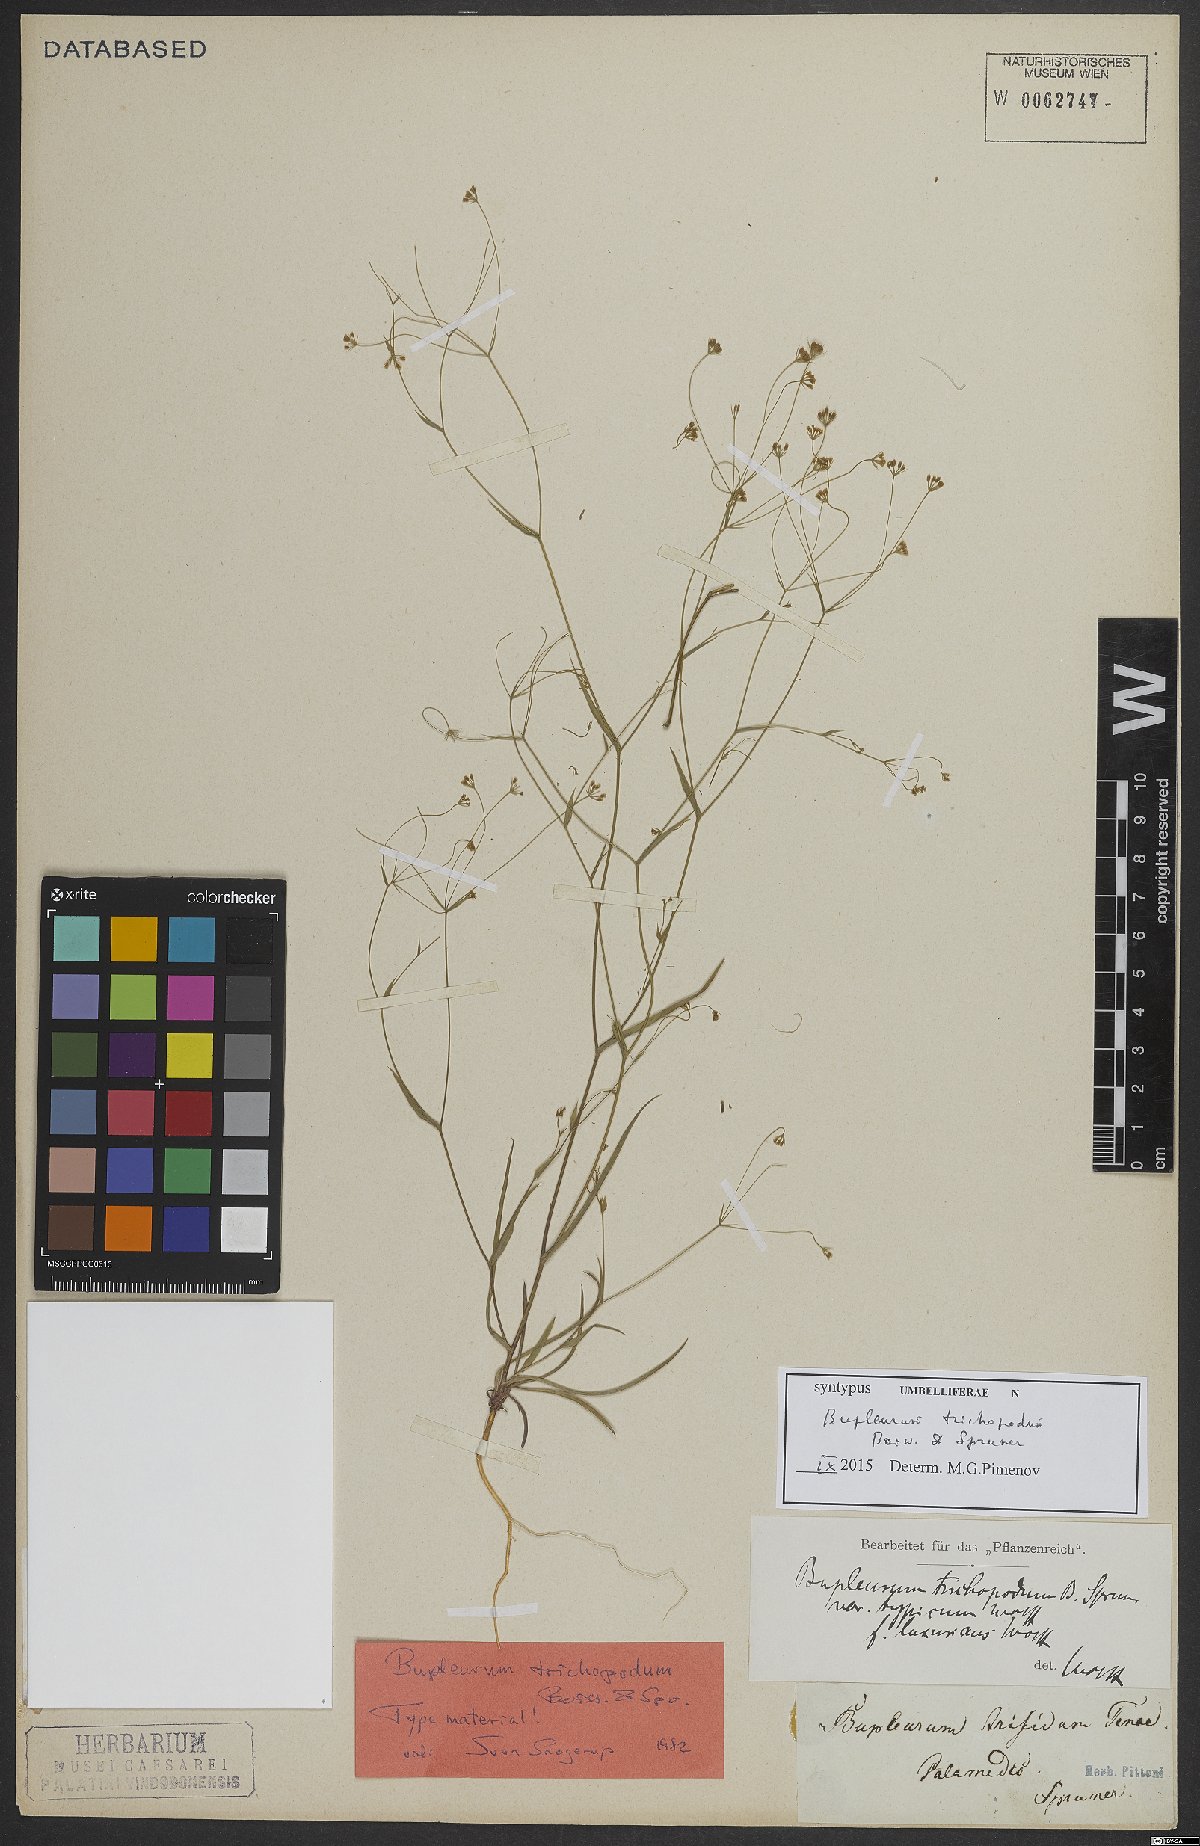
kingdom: Plantae
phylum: Tracheophyta
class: Magnoliopsida
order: Apiales
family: Apiaceae
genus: Bupleurum
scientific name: Bupleurum trichopodum
